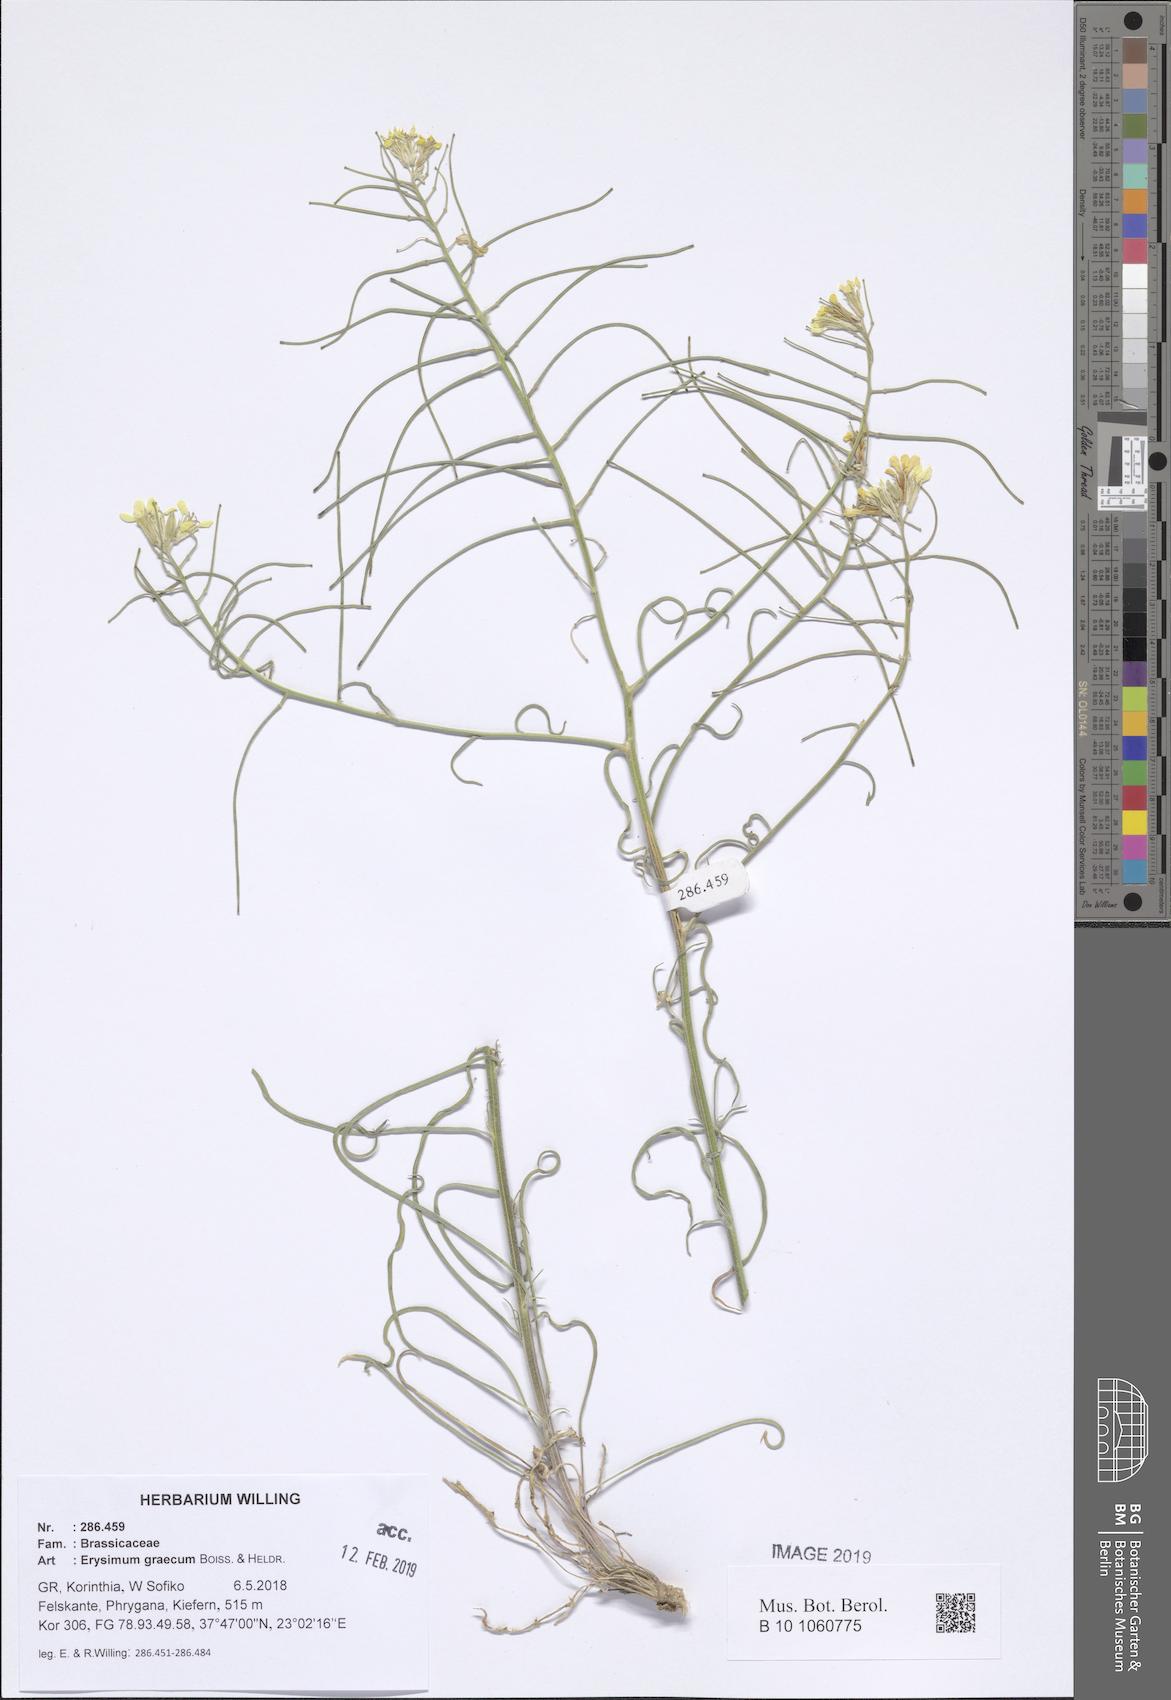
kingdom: Plantae
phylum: Tracheophyta
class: Magnoliopsida
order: Brassicales
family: Brassicaceae
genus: Erysimum
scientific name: Erysimum graecum
